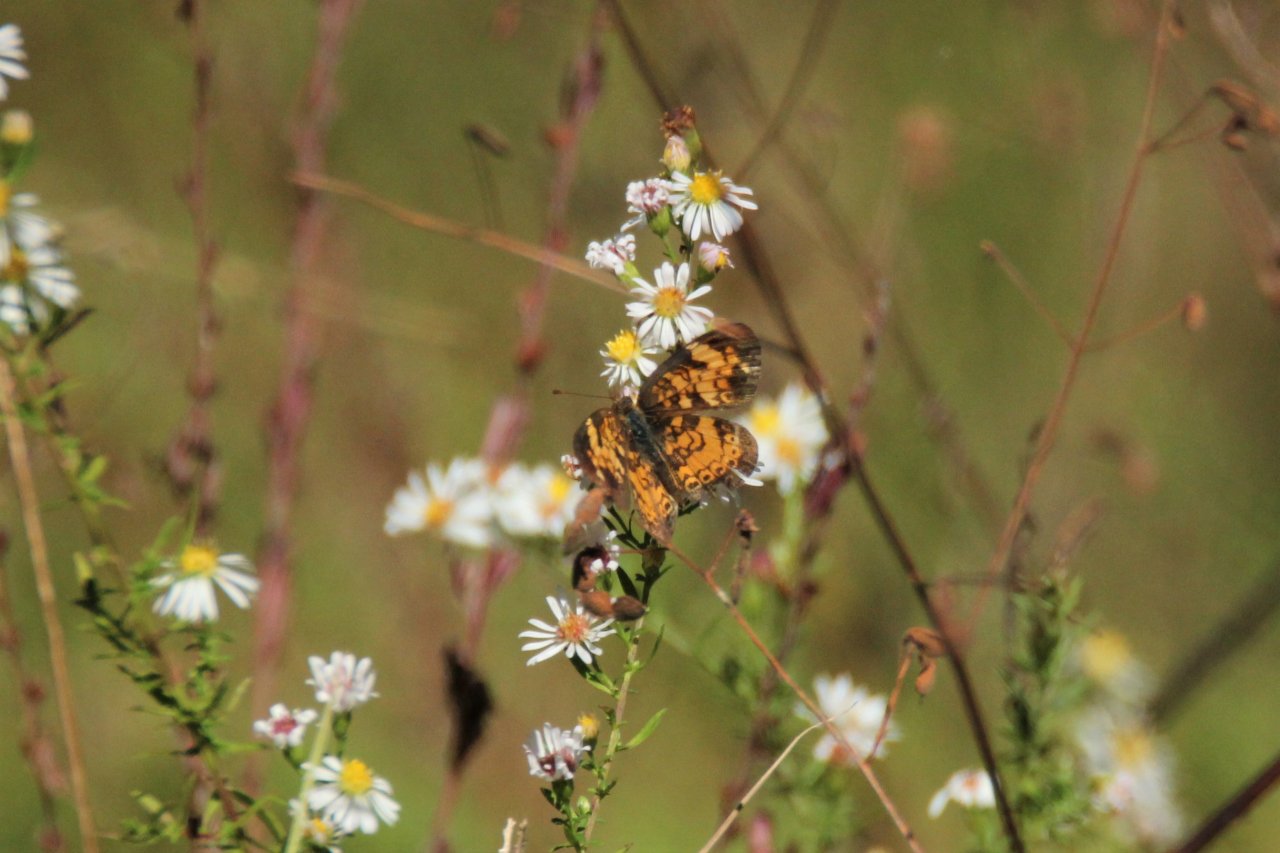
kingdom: Animalia
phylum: Arthropoda
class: Insecta
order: Lepidoptera
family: Nymphalidae
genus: Phyciodes
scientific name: Phyciodes tharos
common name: Pearl Crescent
